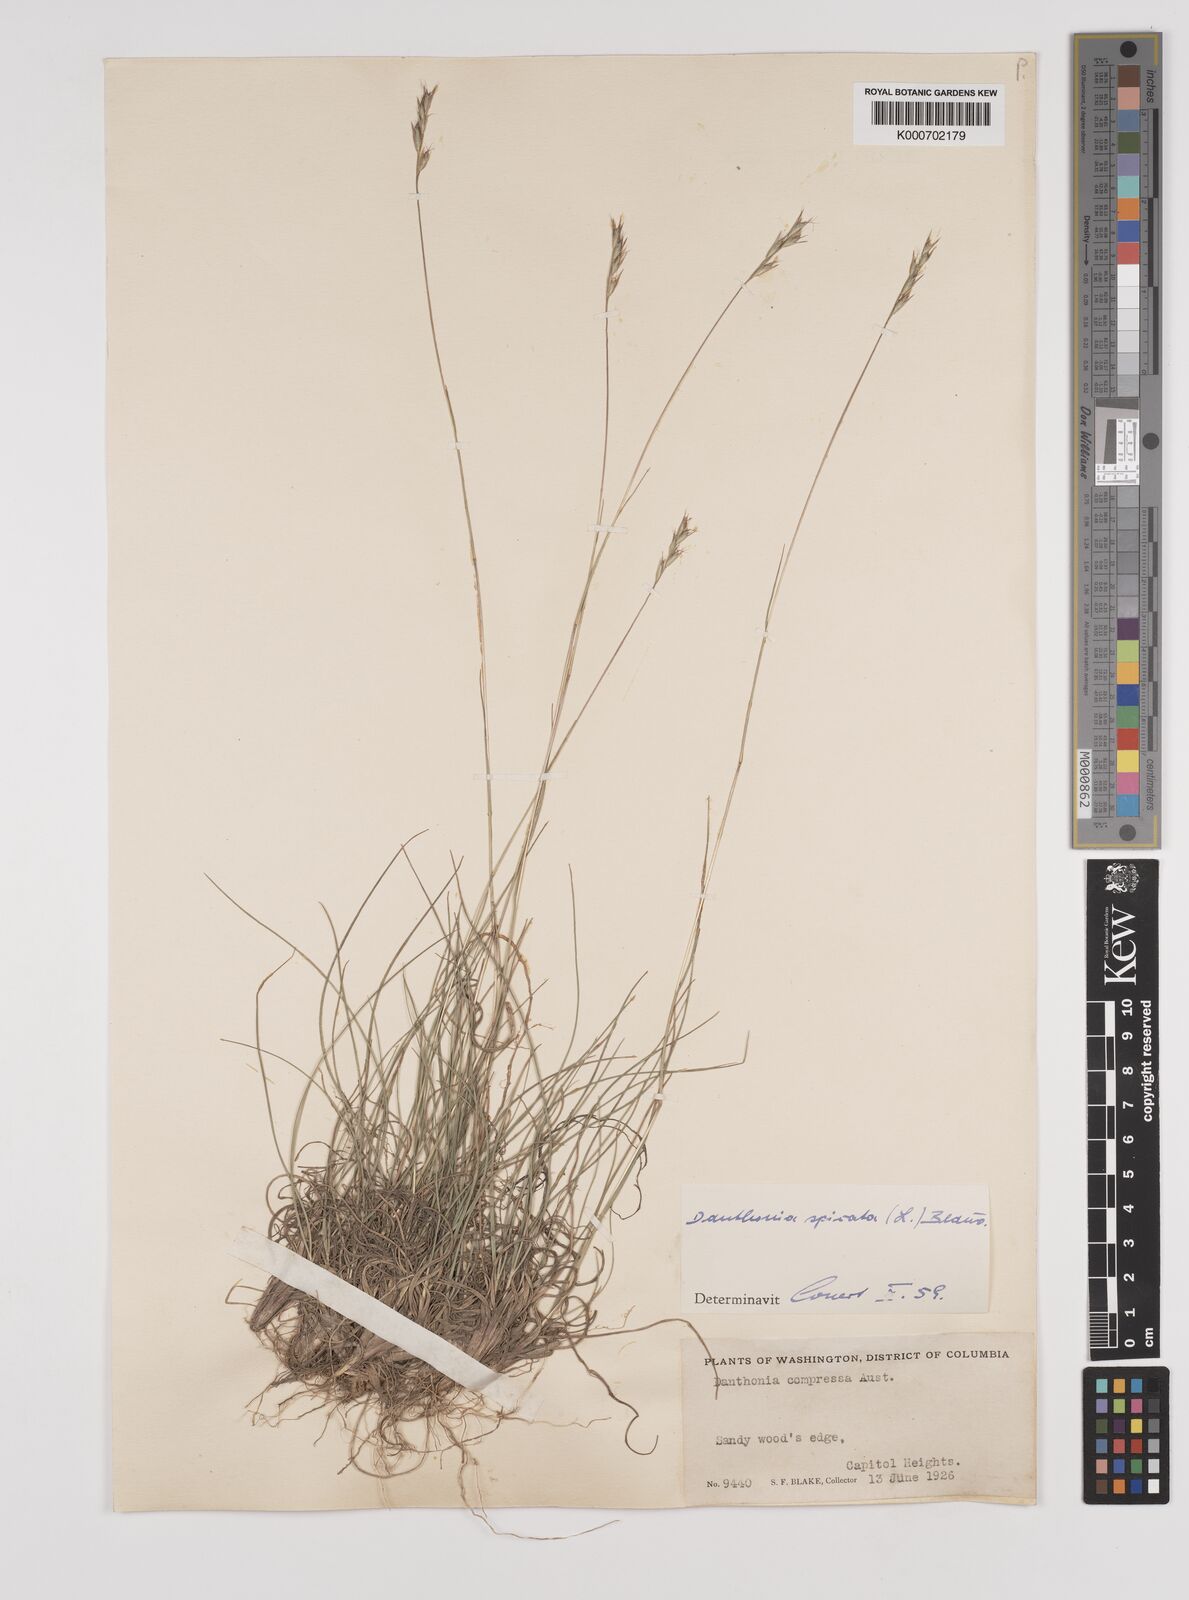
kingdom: Plantae
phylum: Tracheophyta
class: Liliopsida
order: Poales
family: Poaceae
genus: Danthonia
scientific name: Danthonia spicata
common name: Common wild oatgrass
